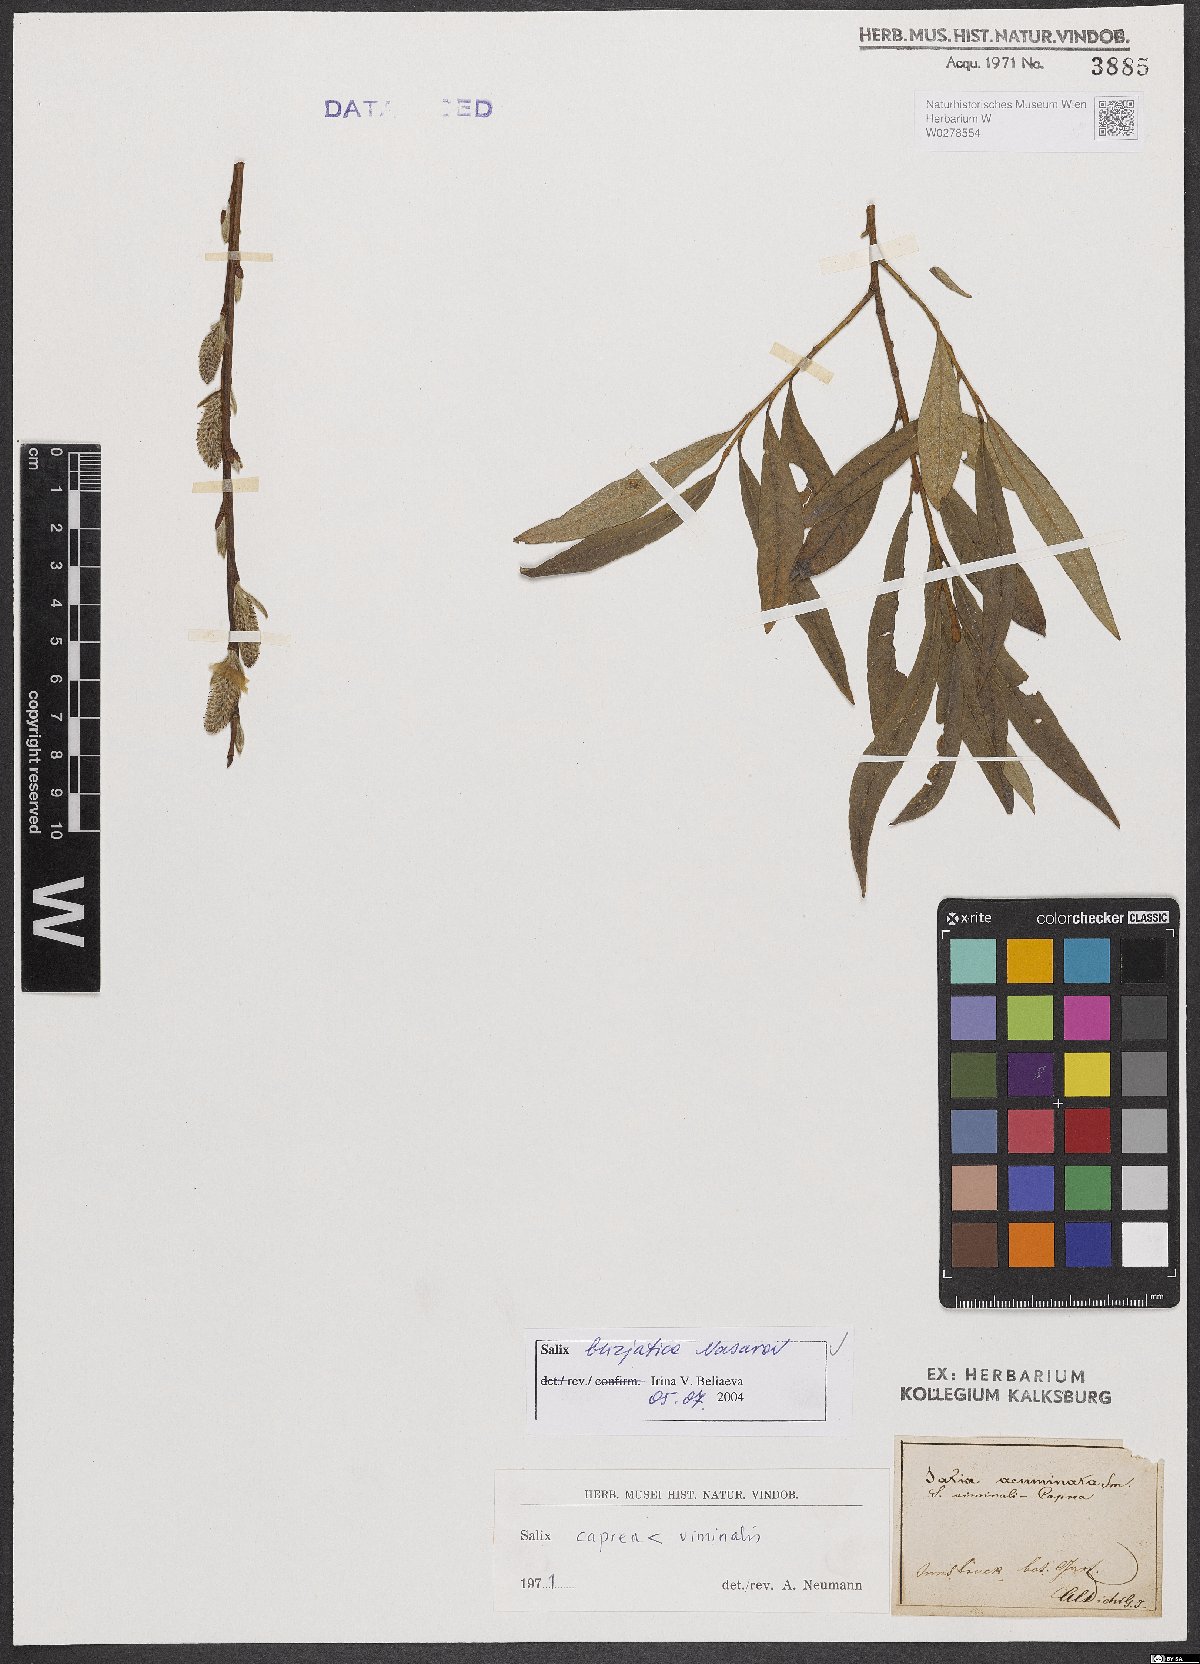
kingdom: Plantae
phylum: Tracheophyta
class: Magnoliopsida
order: Malpighiales
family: Salicaceae
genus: Salix
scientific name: Salix gmelinii
